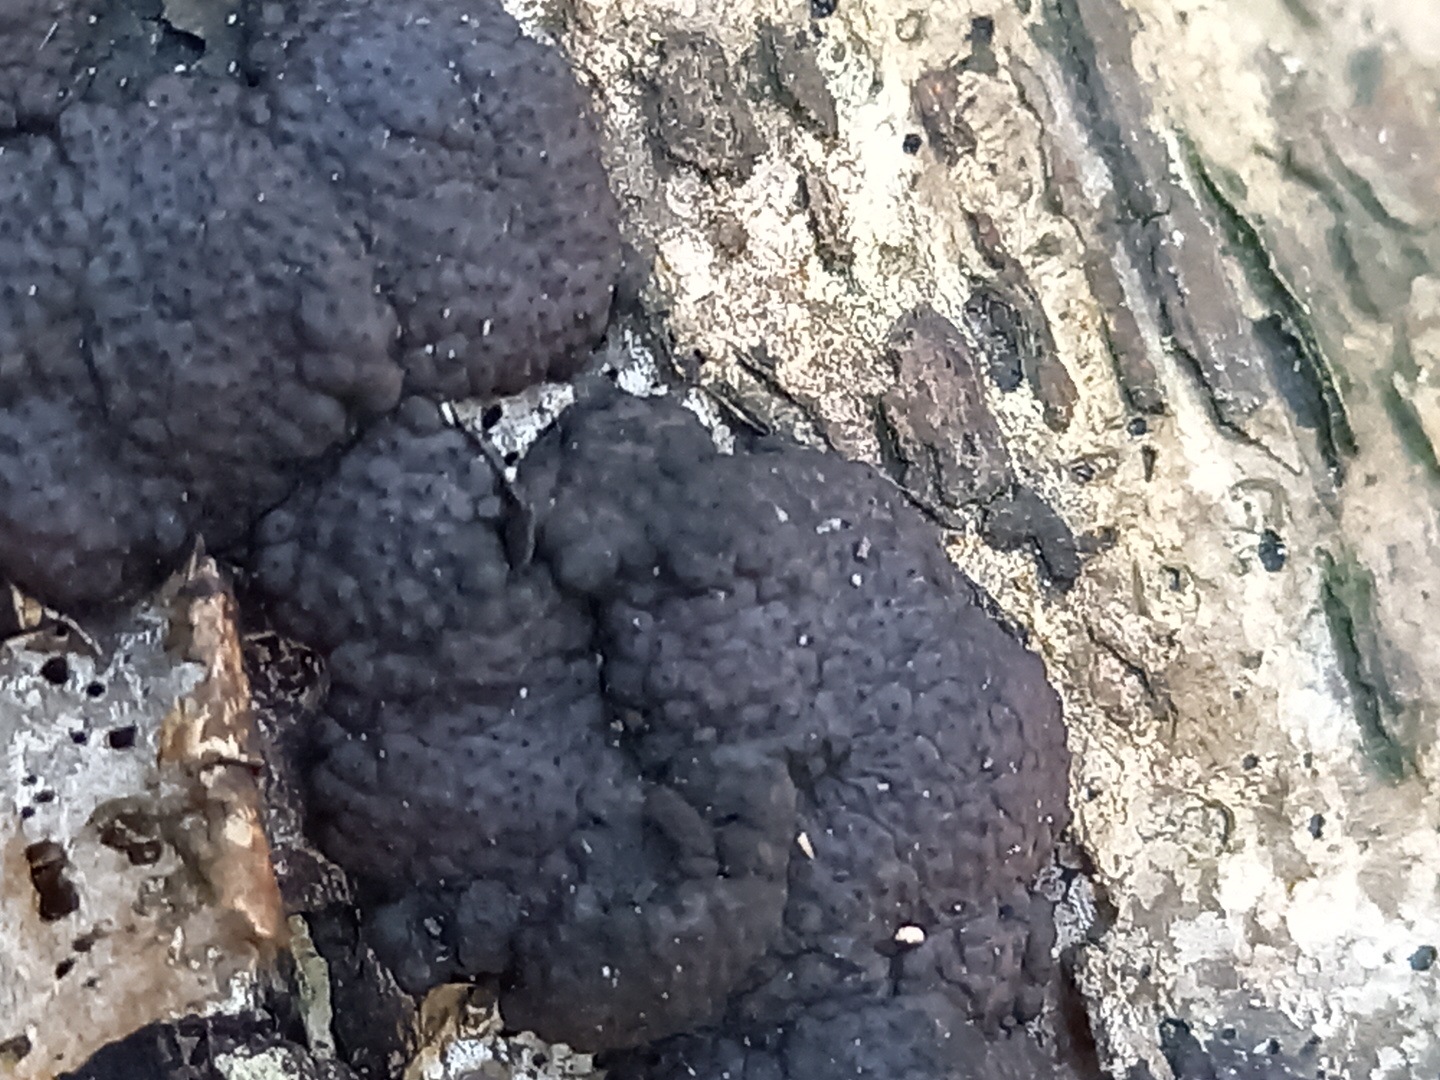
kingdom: Fungi
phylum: Ascomycota
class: Sordariomycetes
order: Xylariales
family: Hypoxylaceae
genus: Jackrogersella
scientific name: Jackrogersella multiformis
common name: foranderlig kulbær
